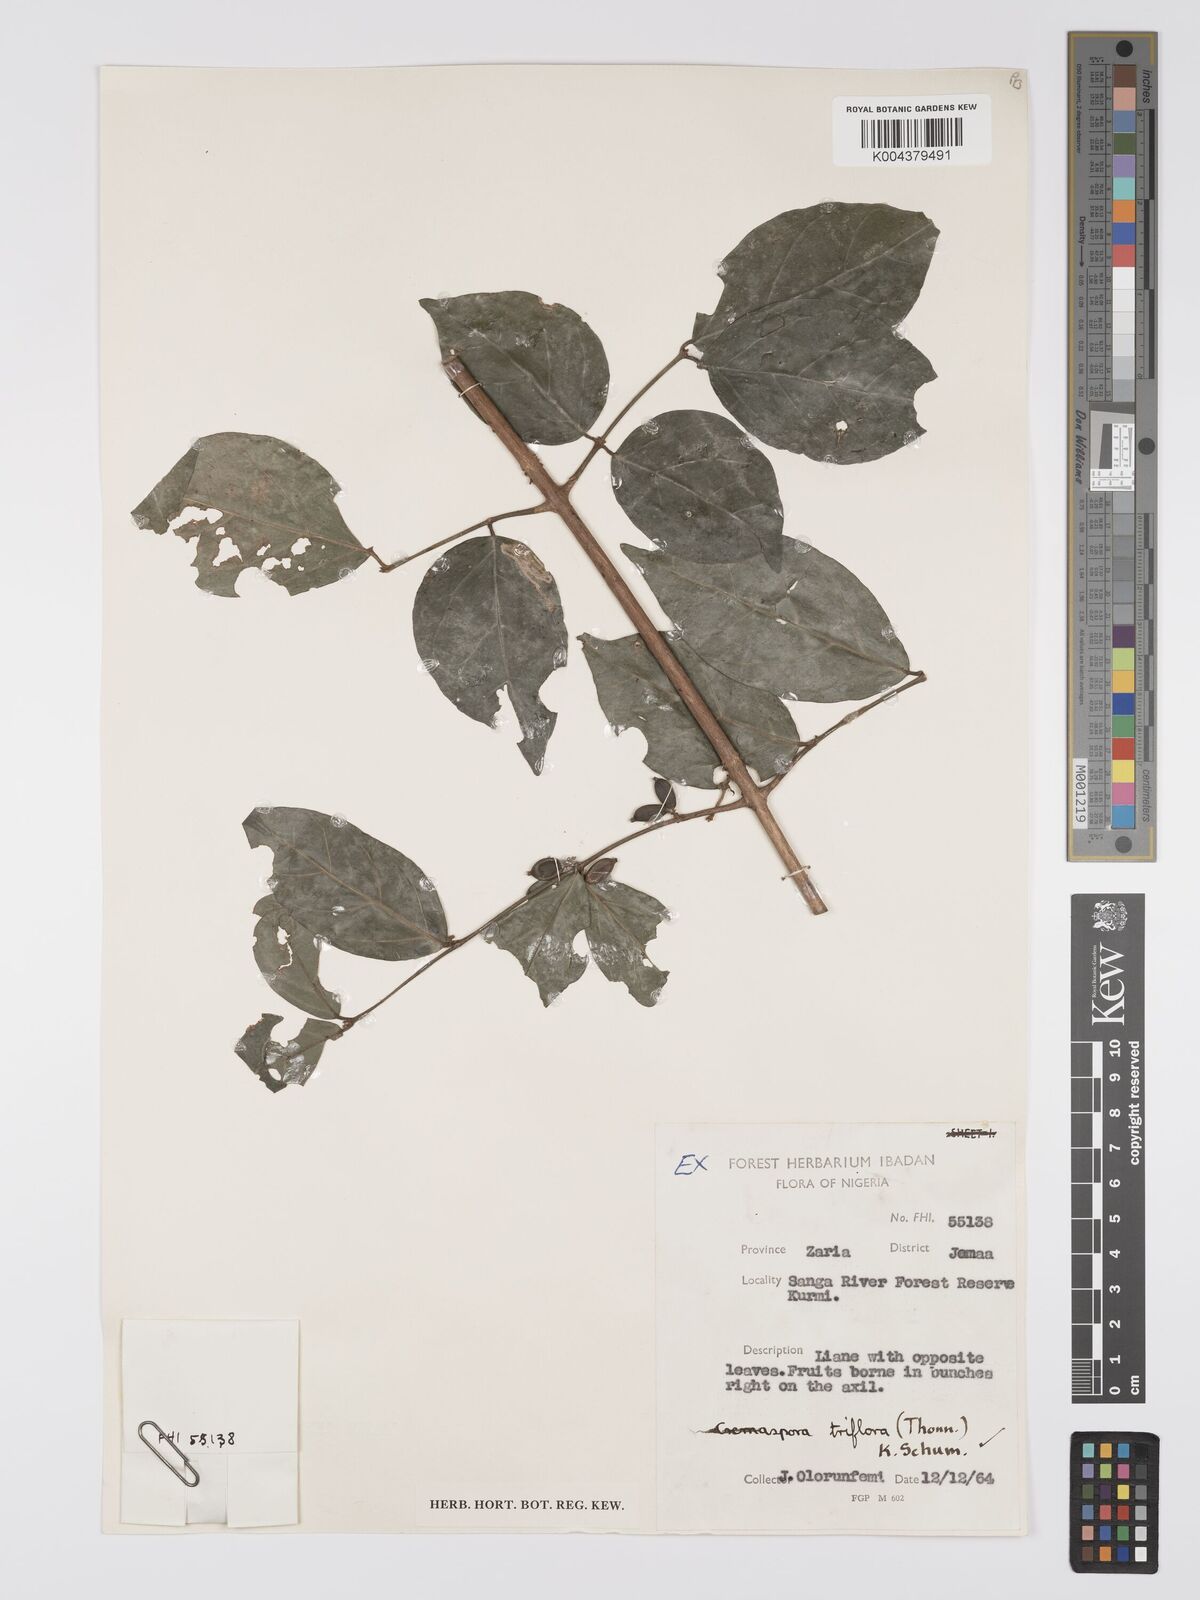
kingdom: Plantae
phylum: Tracheophyta
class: Magnoliopsida
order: Gentianales
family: Rubiaceae
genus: Cremaspora
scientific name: Cremaspora triflora
